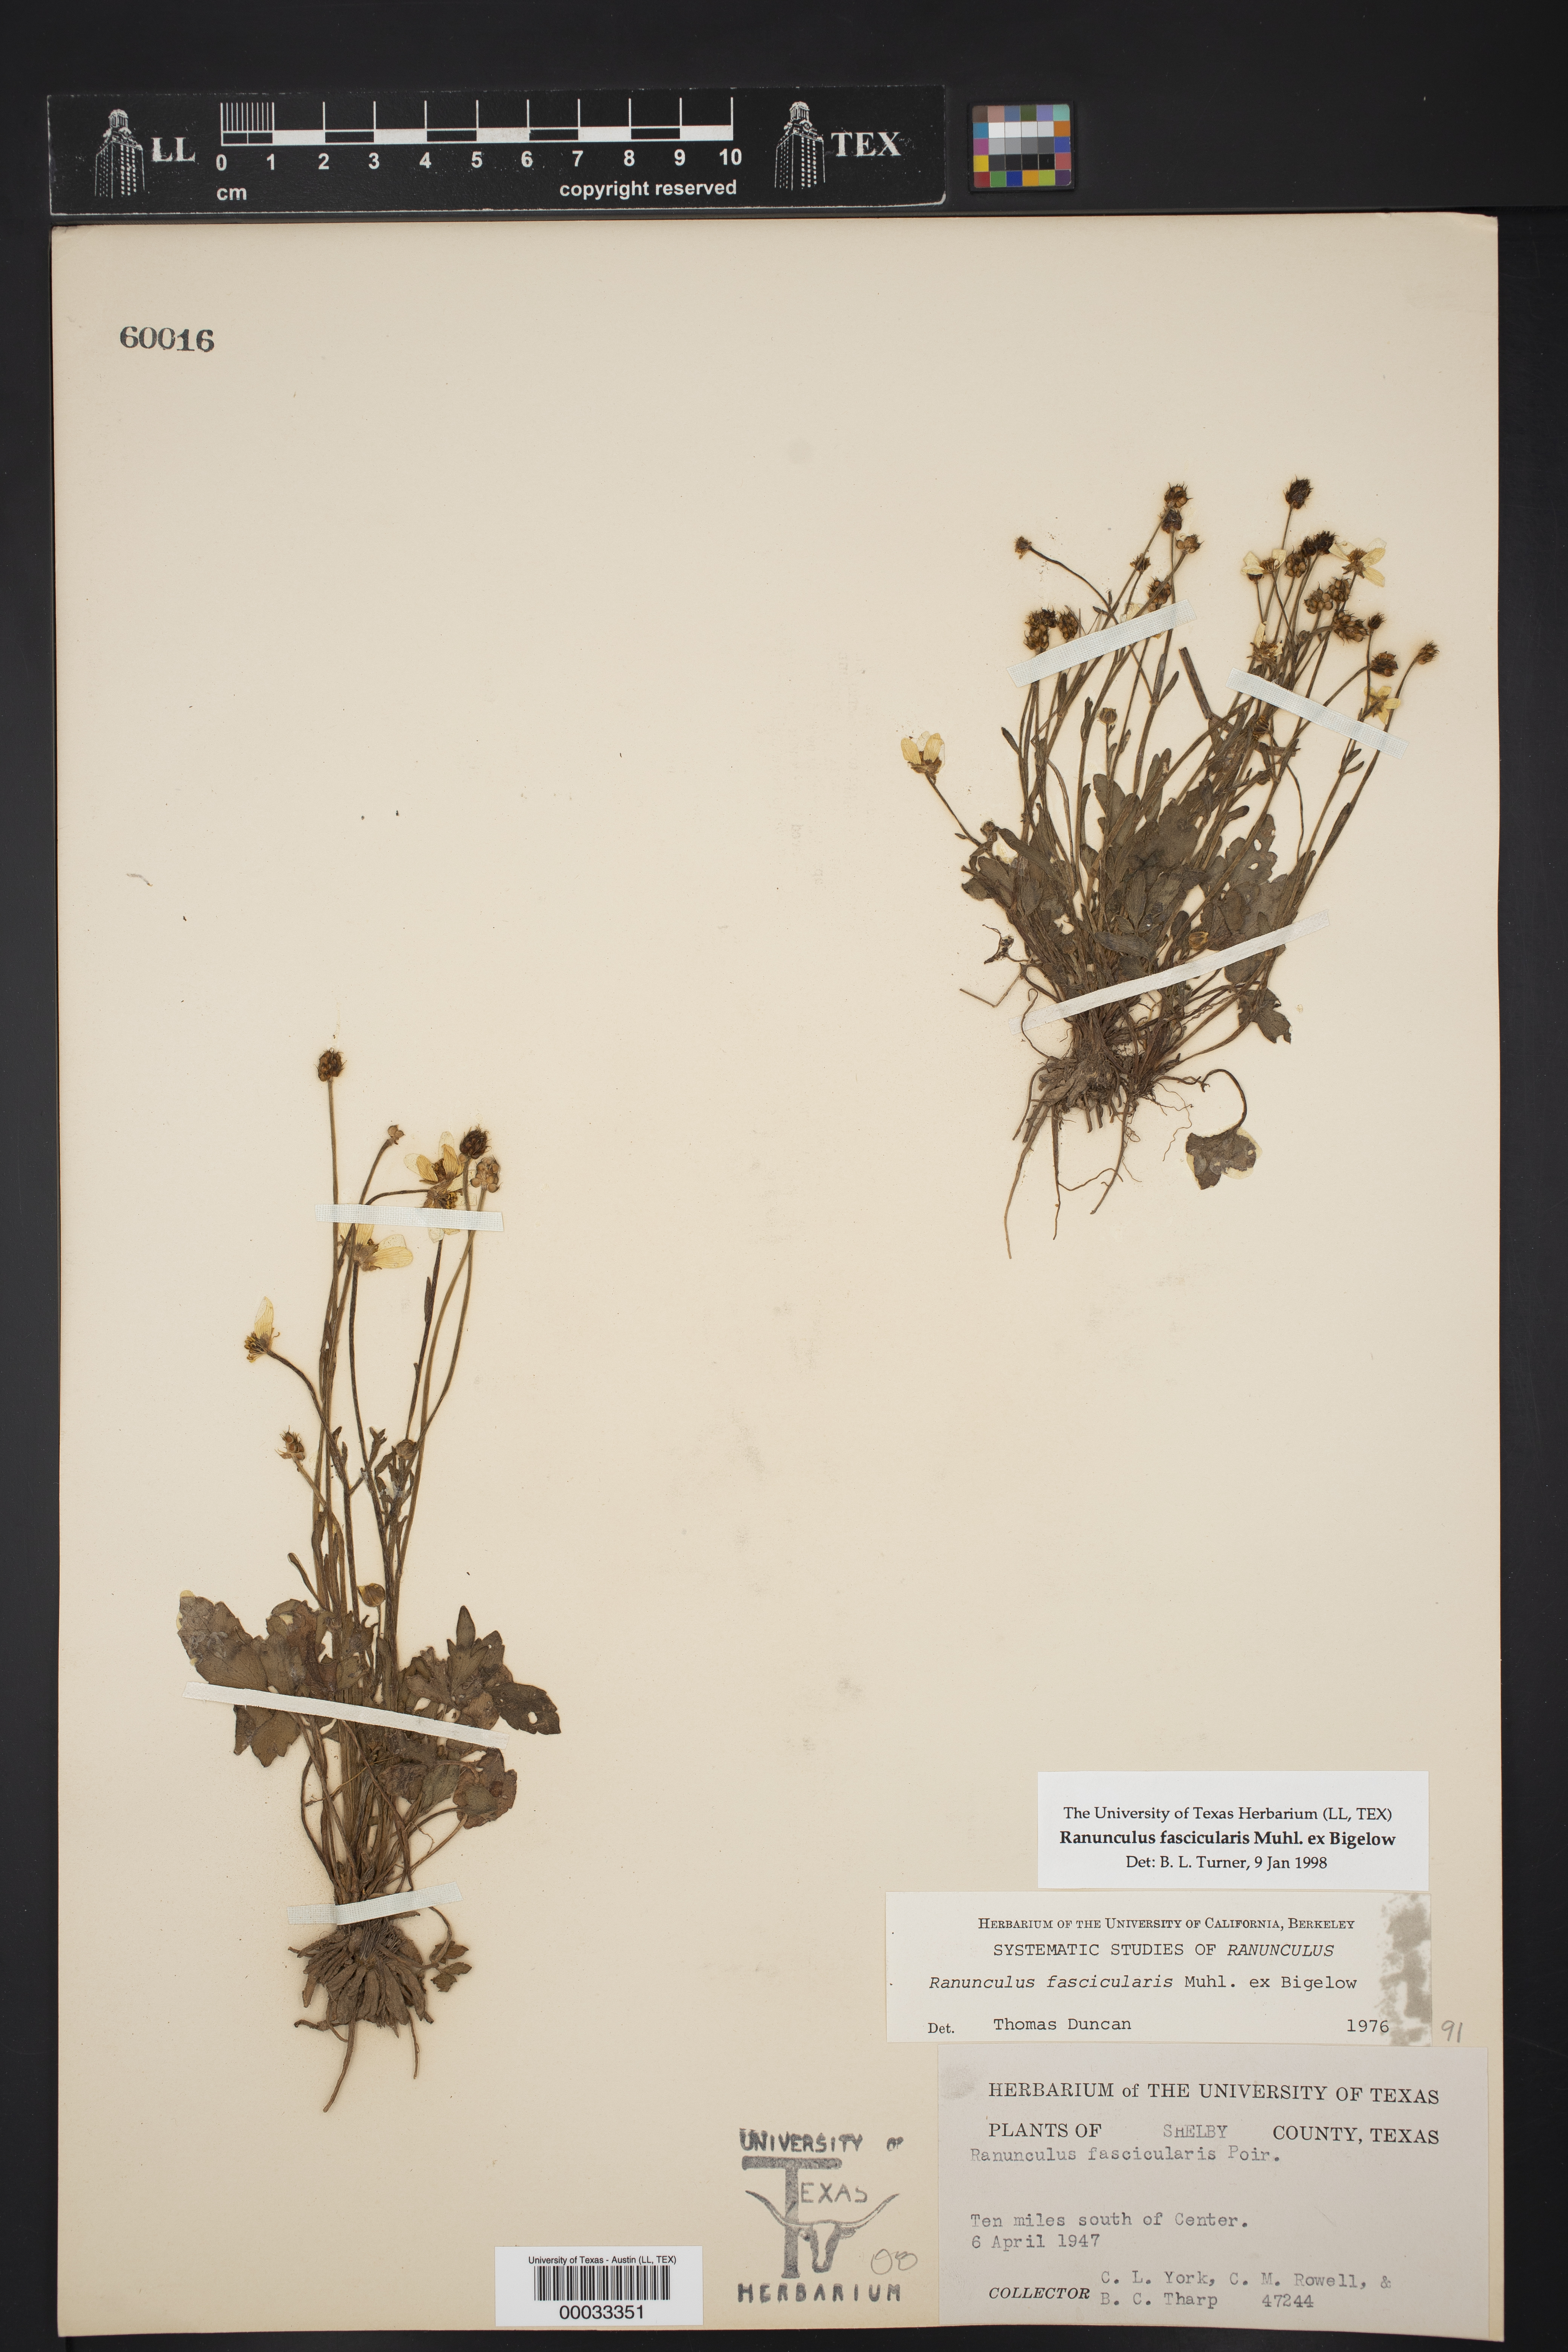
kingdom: Plantae
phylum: Tracheophyta
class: Magnoliopsida
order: Ranunculales
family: Ranunculaceae
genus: Ranunculus
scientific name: Ranunculus fascicularis
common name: Early buttercup
